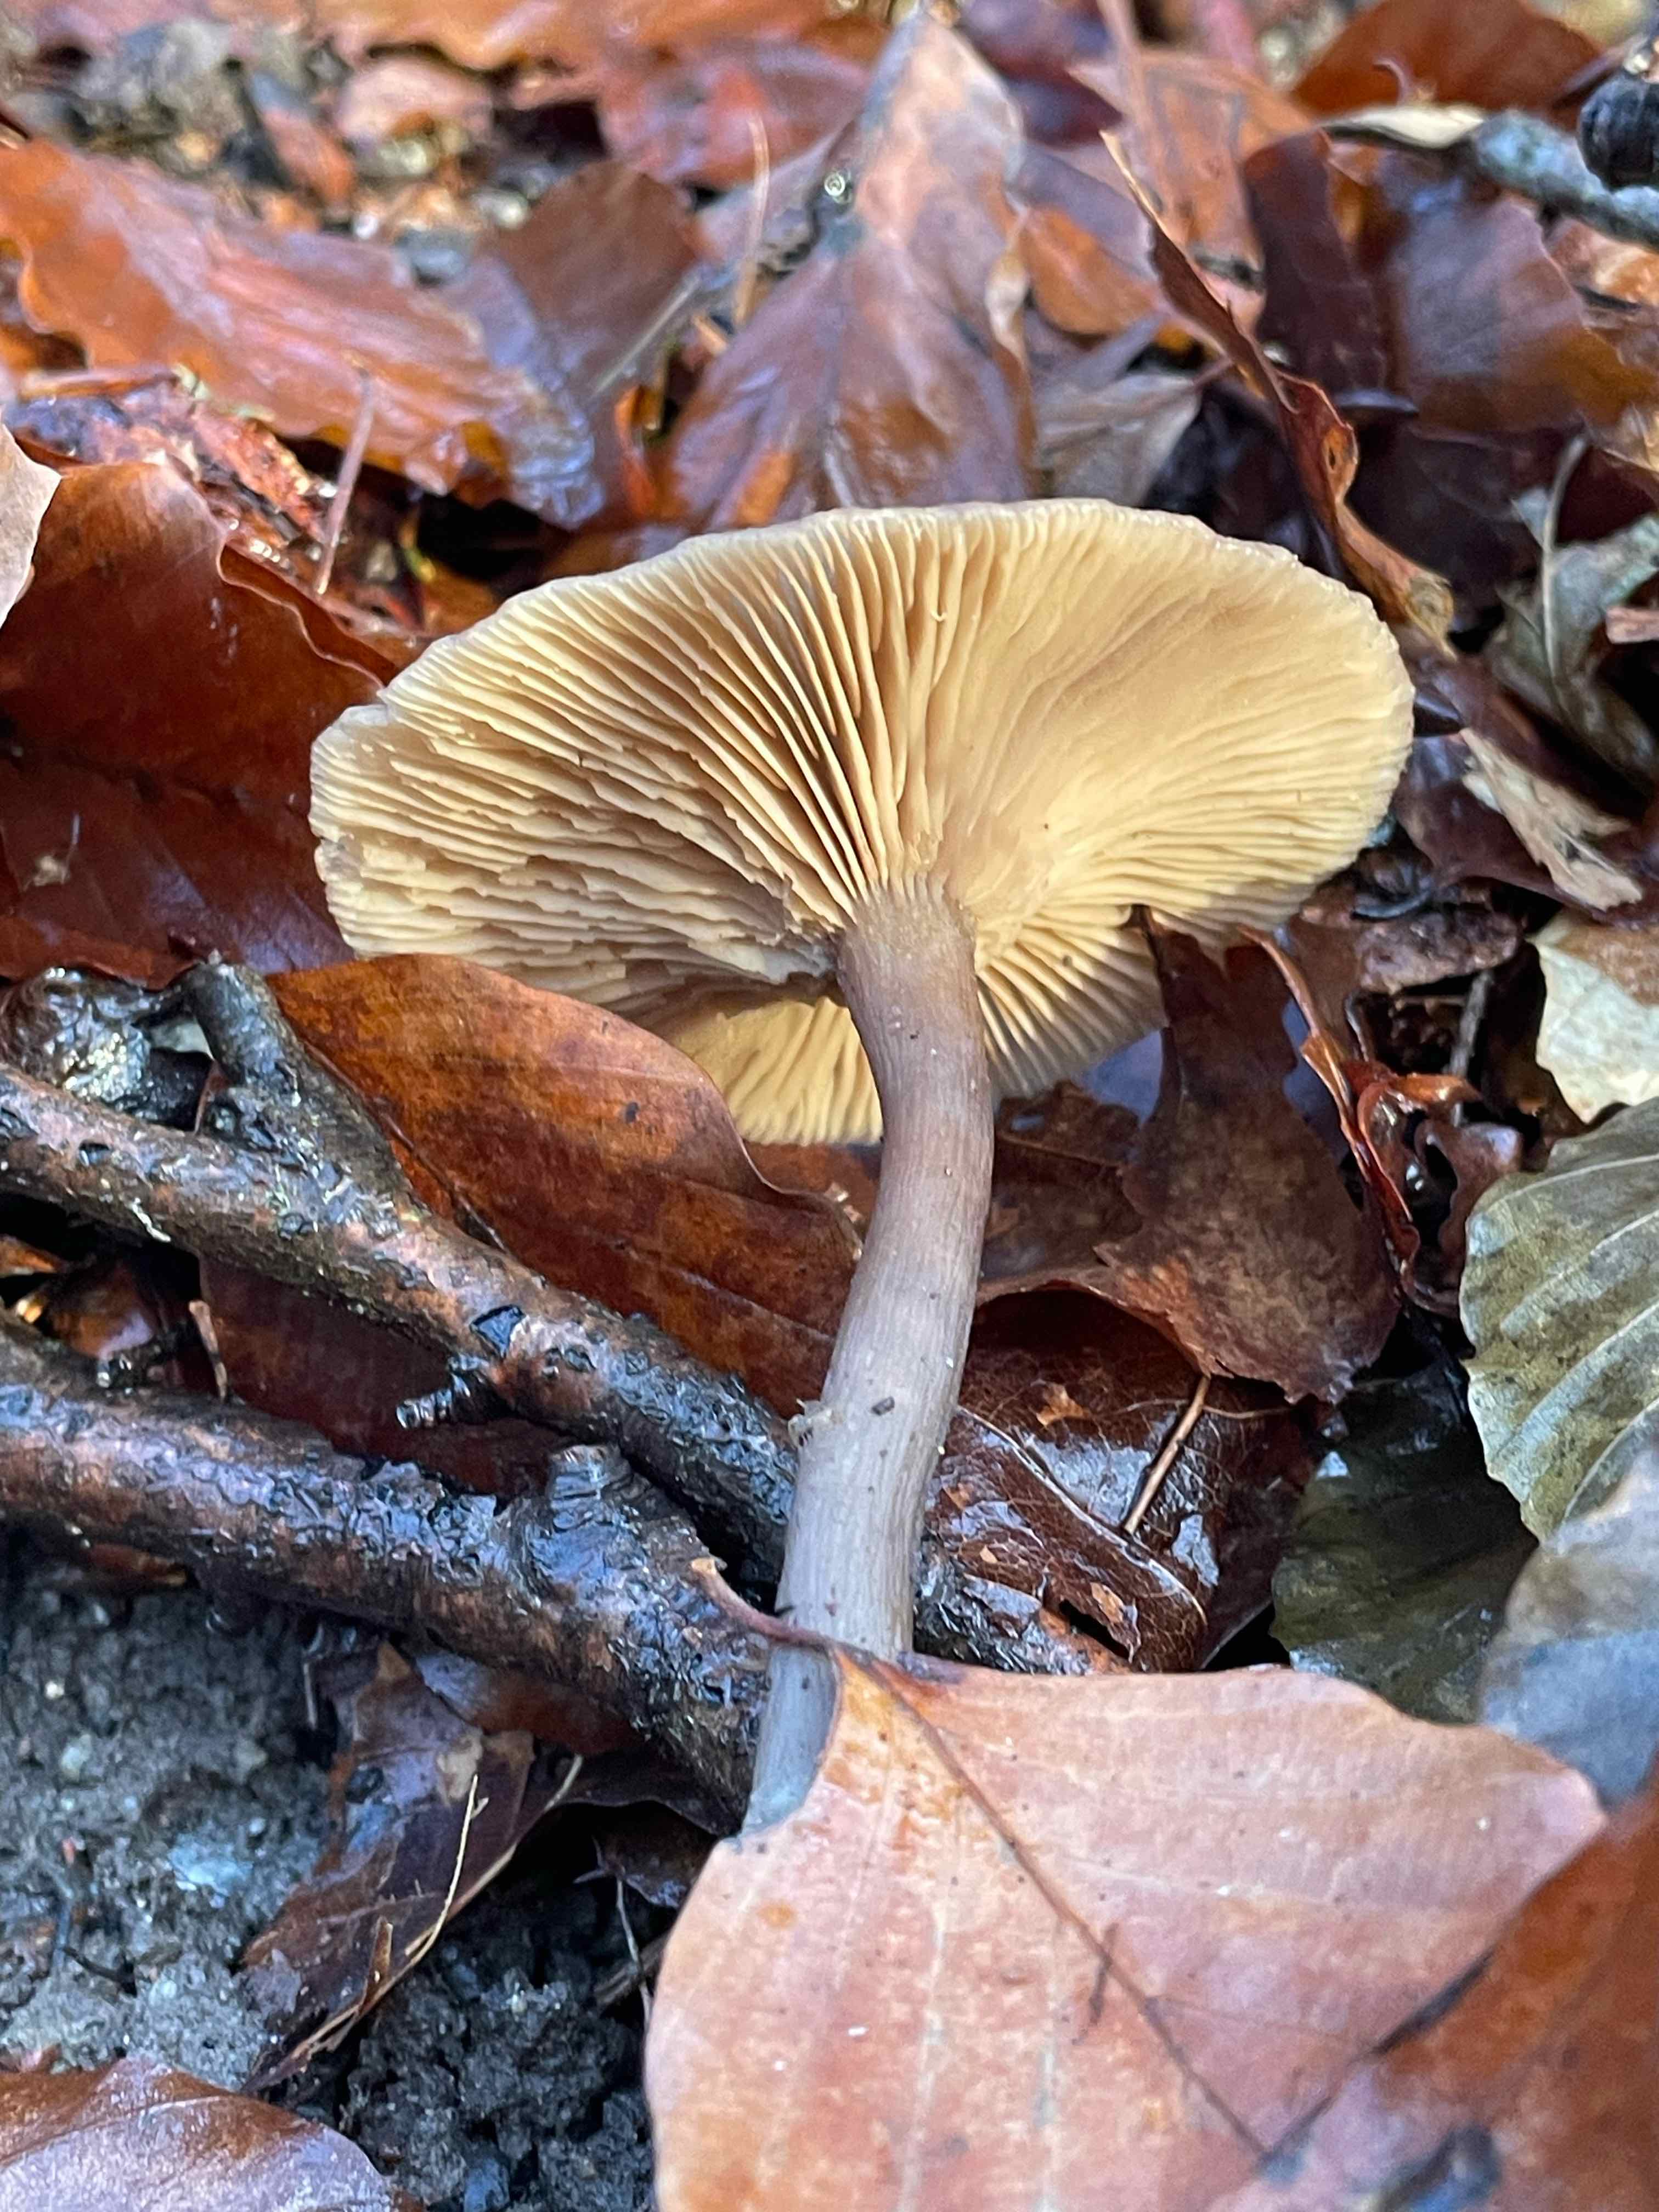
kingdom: Fungi
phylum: Basidiomycota
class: Agaricomycetes
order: Agaricales
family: Pseudoclitocybaceae
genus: Pseudoclitocybe
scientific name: Pseudoclitocybe cyathiformis
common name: almindelig bægertragthat
